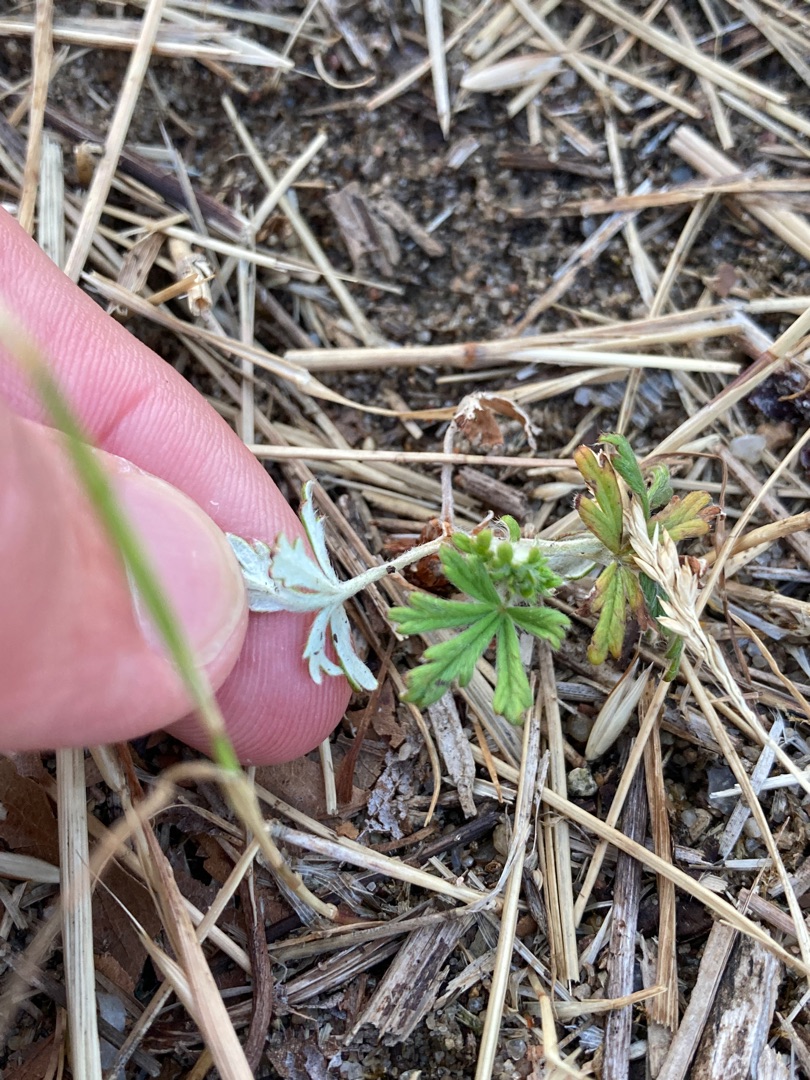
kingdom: Plantae
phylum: Tracheophyta
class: Magnoliopsida
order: Rosales
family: Rosaceae
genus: Potentilla
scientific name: Potentilla argentea
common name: Sølv-potentil
